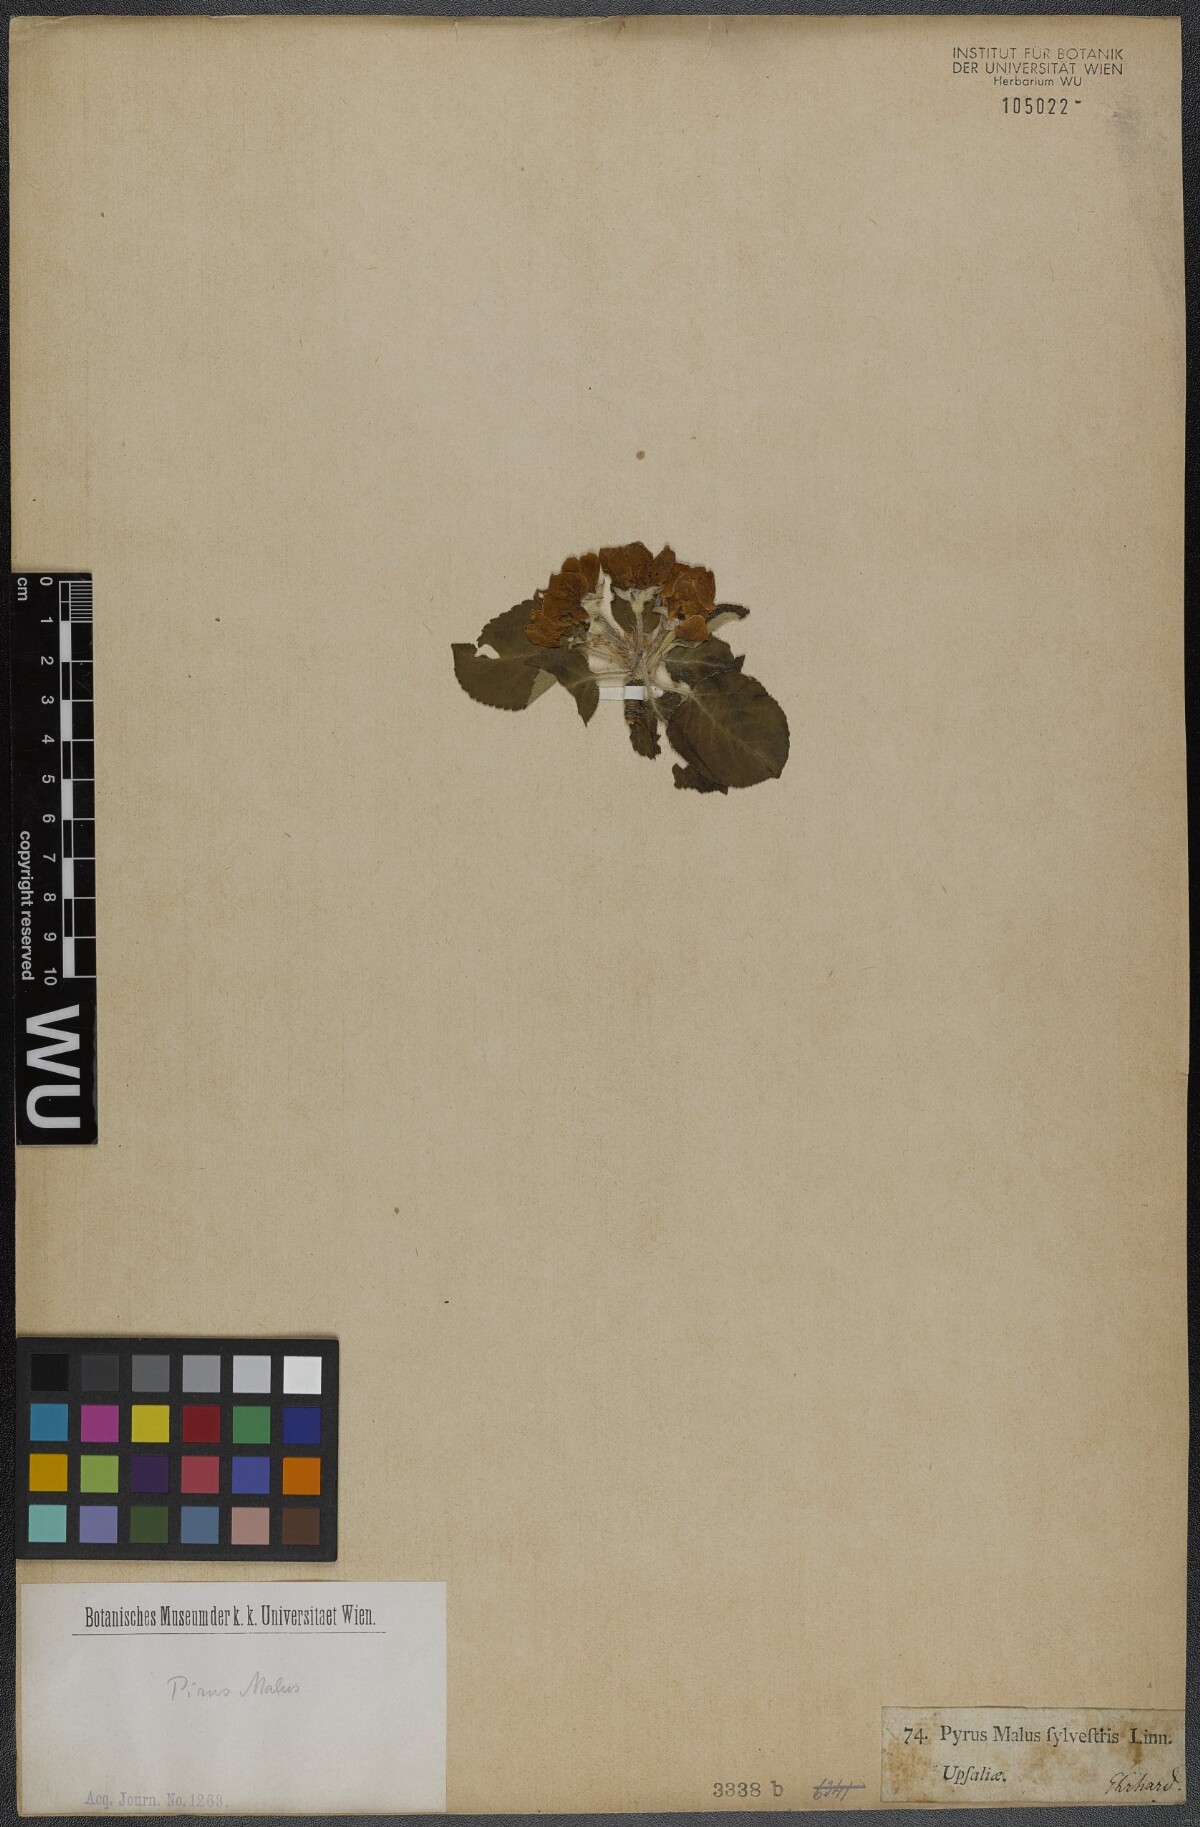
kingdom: Plantae
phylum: Tracheophyta
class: Magnoliopsida
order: Rosales
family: Rosaceae
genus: Malus
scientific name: Malus sylvestris
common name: Crab apple
